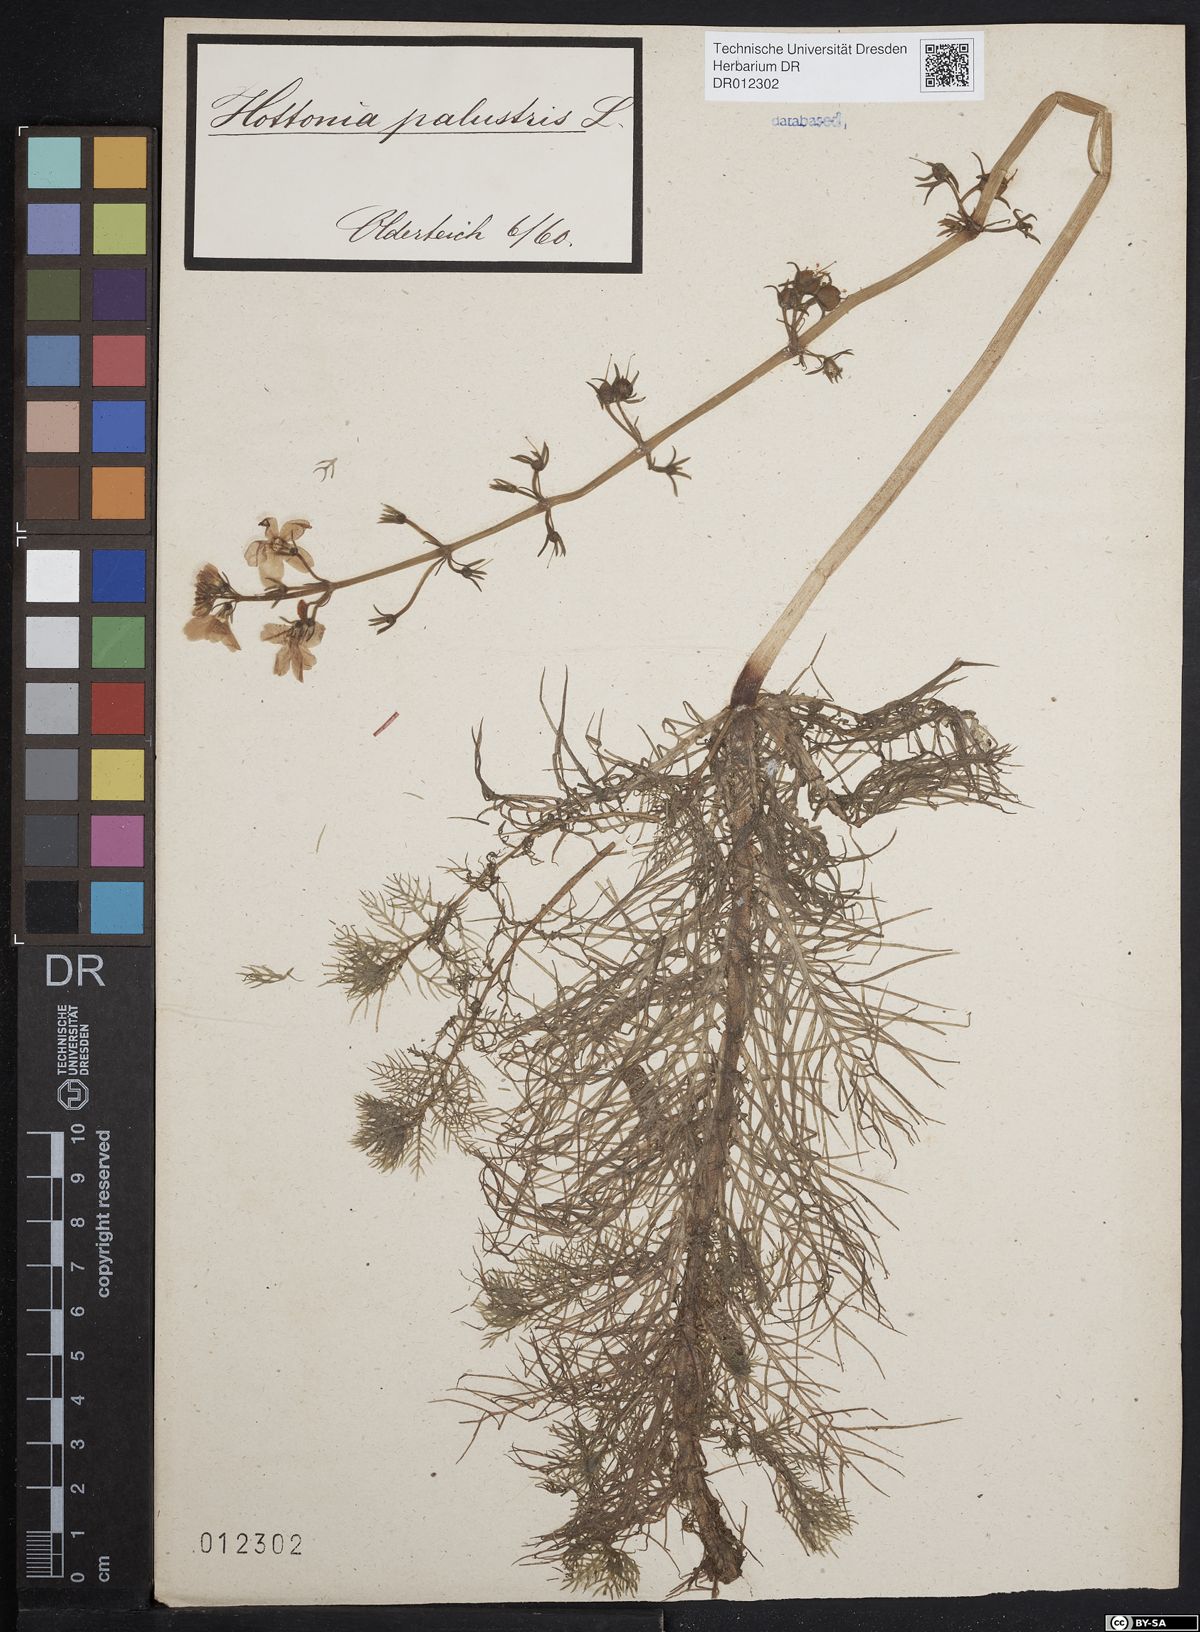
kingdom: Plantae
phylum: Tracheophyta
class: Magnoliopsida
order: Ericales
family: Primulaceae
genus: Hottonia
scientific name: Hottonia palustris
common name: Water-violet
